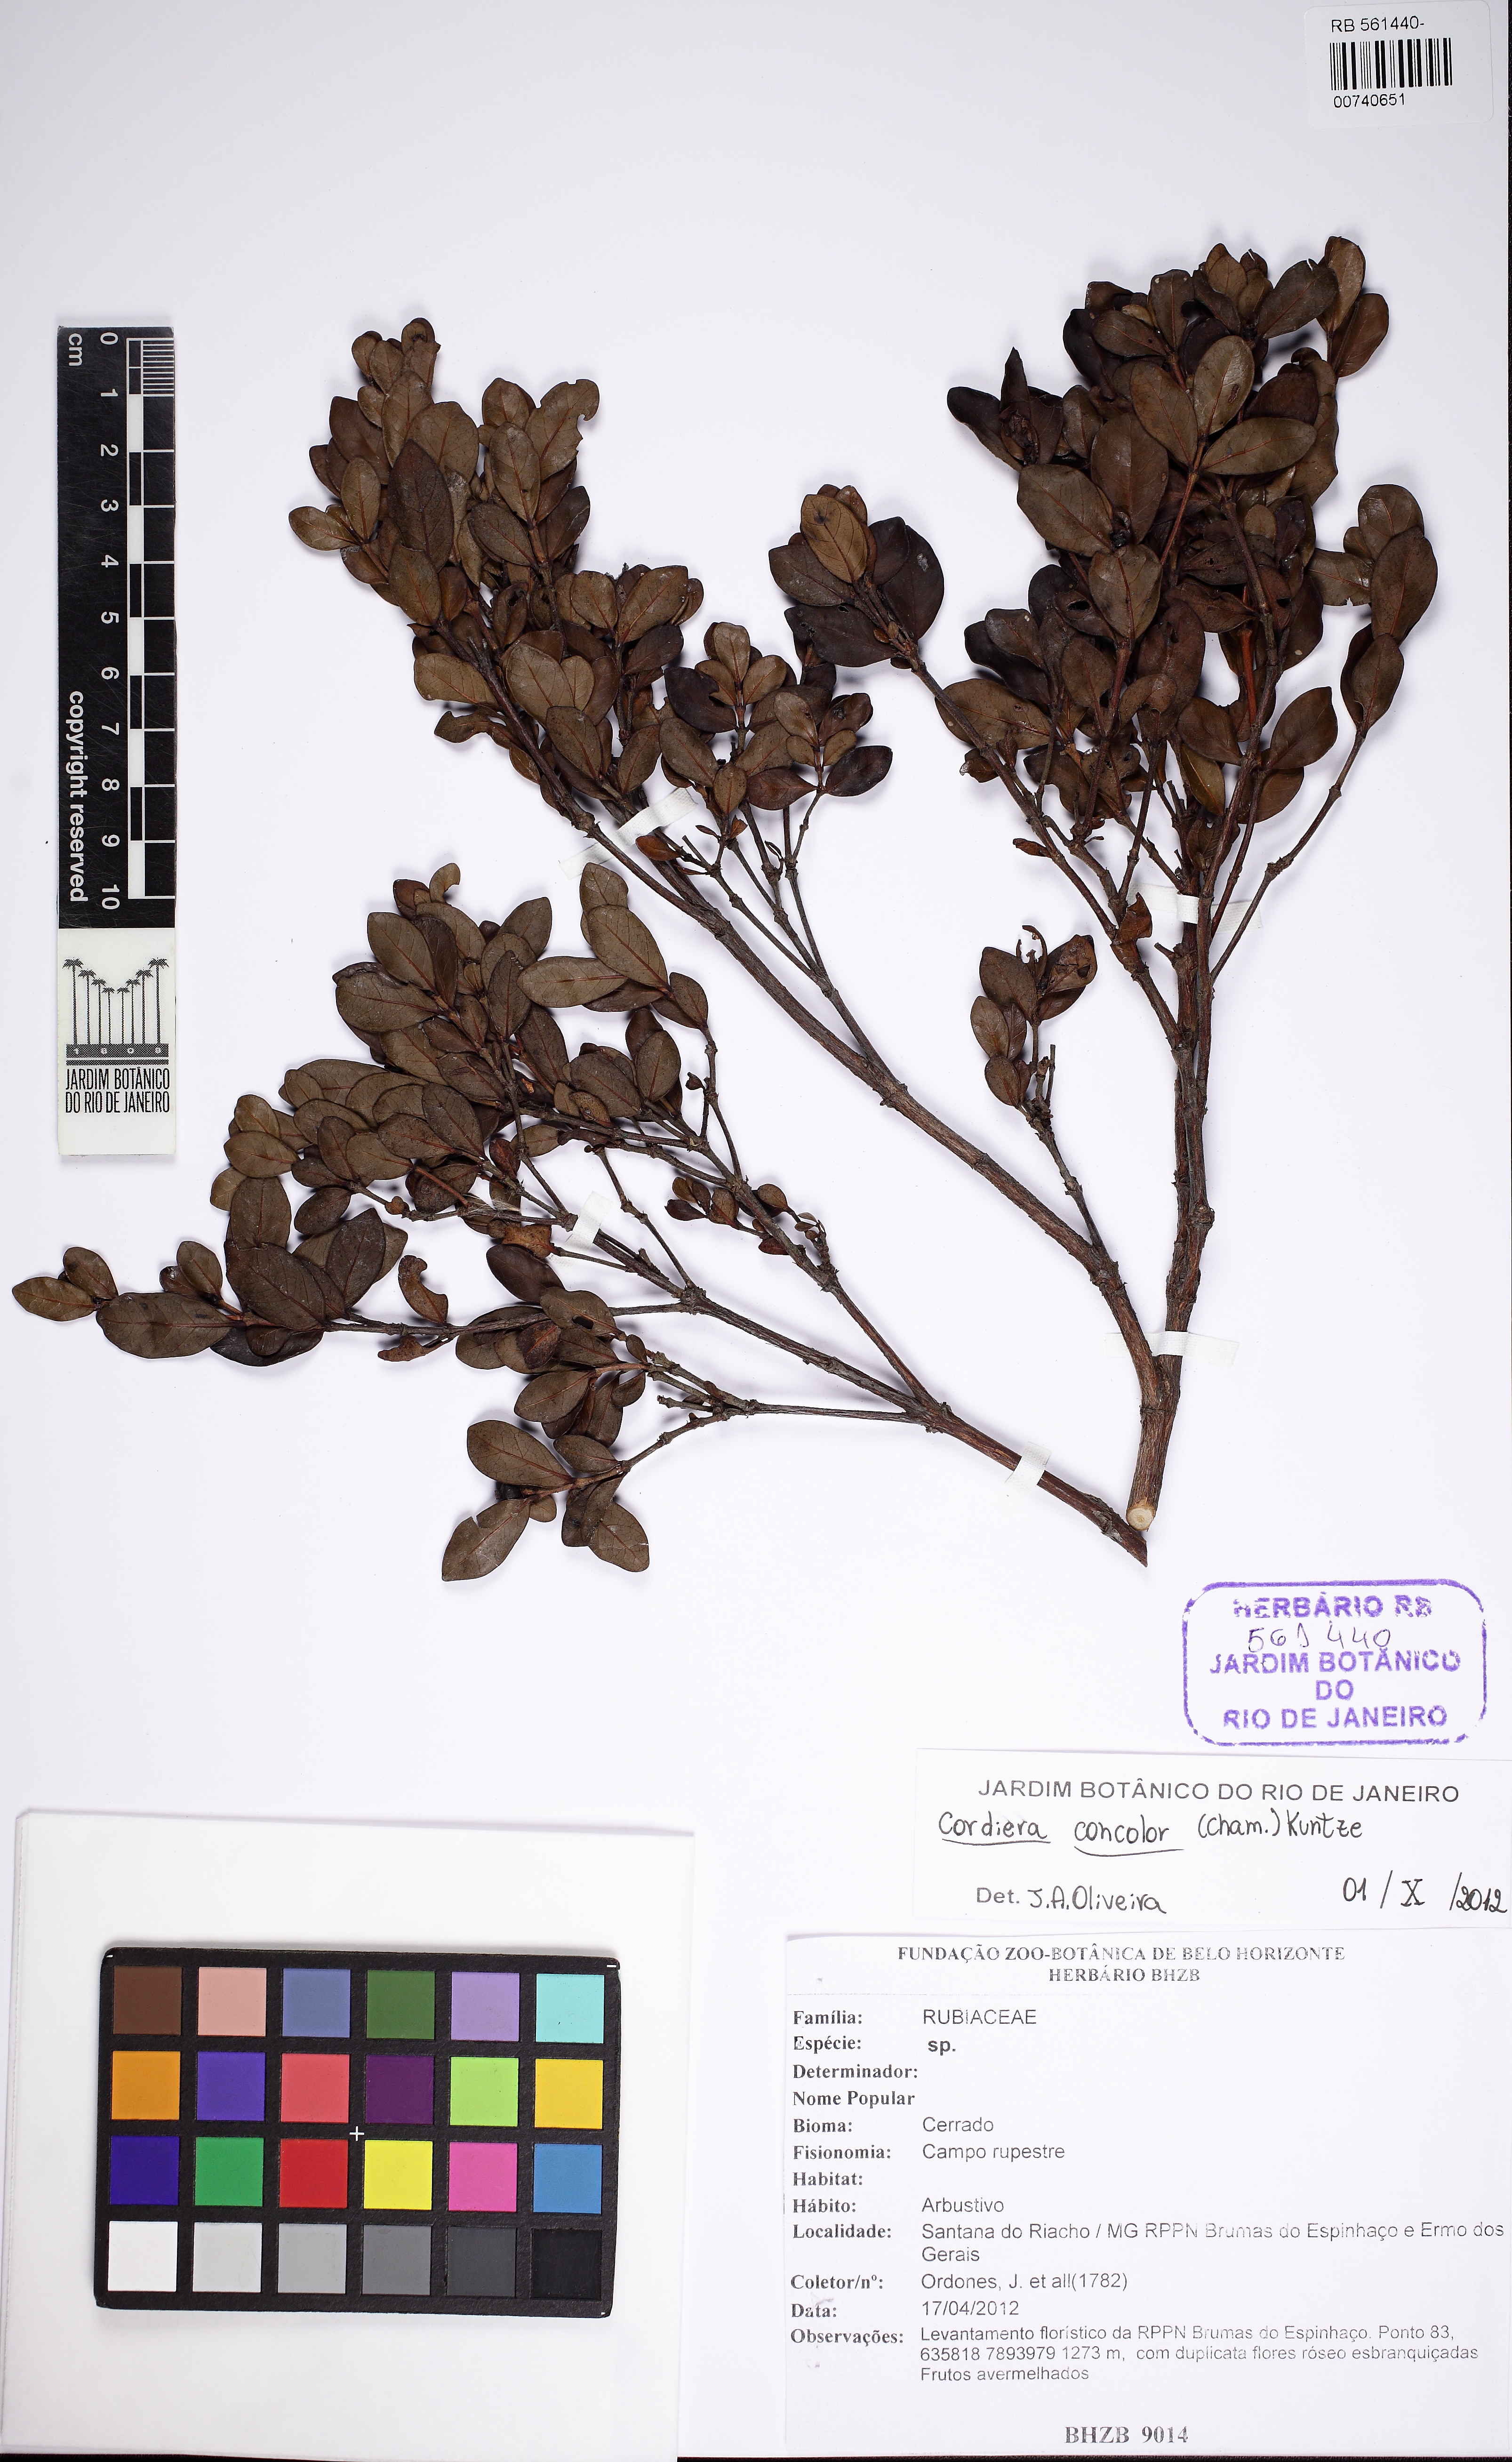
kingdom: Plantae
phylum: Tracheophyta
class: Magnoliopsida
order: Gentianales
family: Rubiaceae
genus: Cordiera
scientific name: Cordiera concolor
